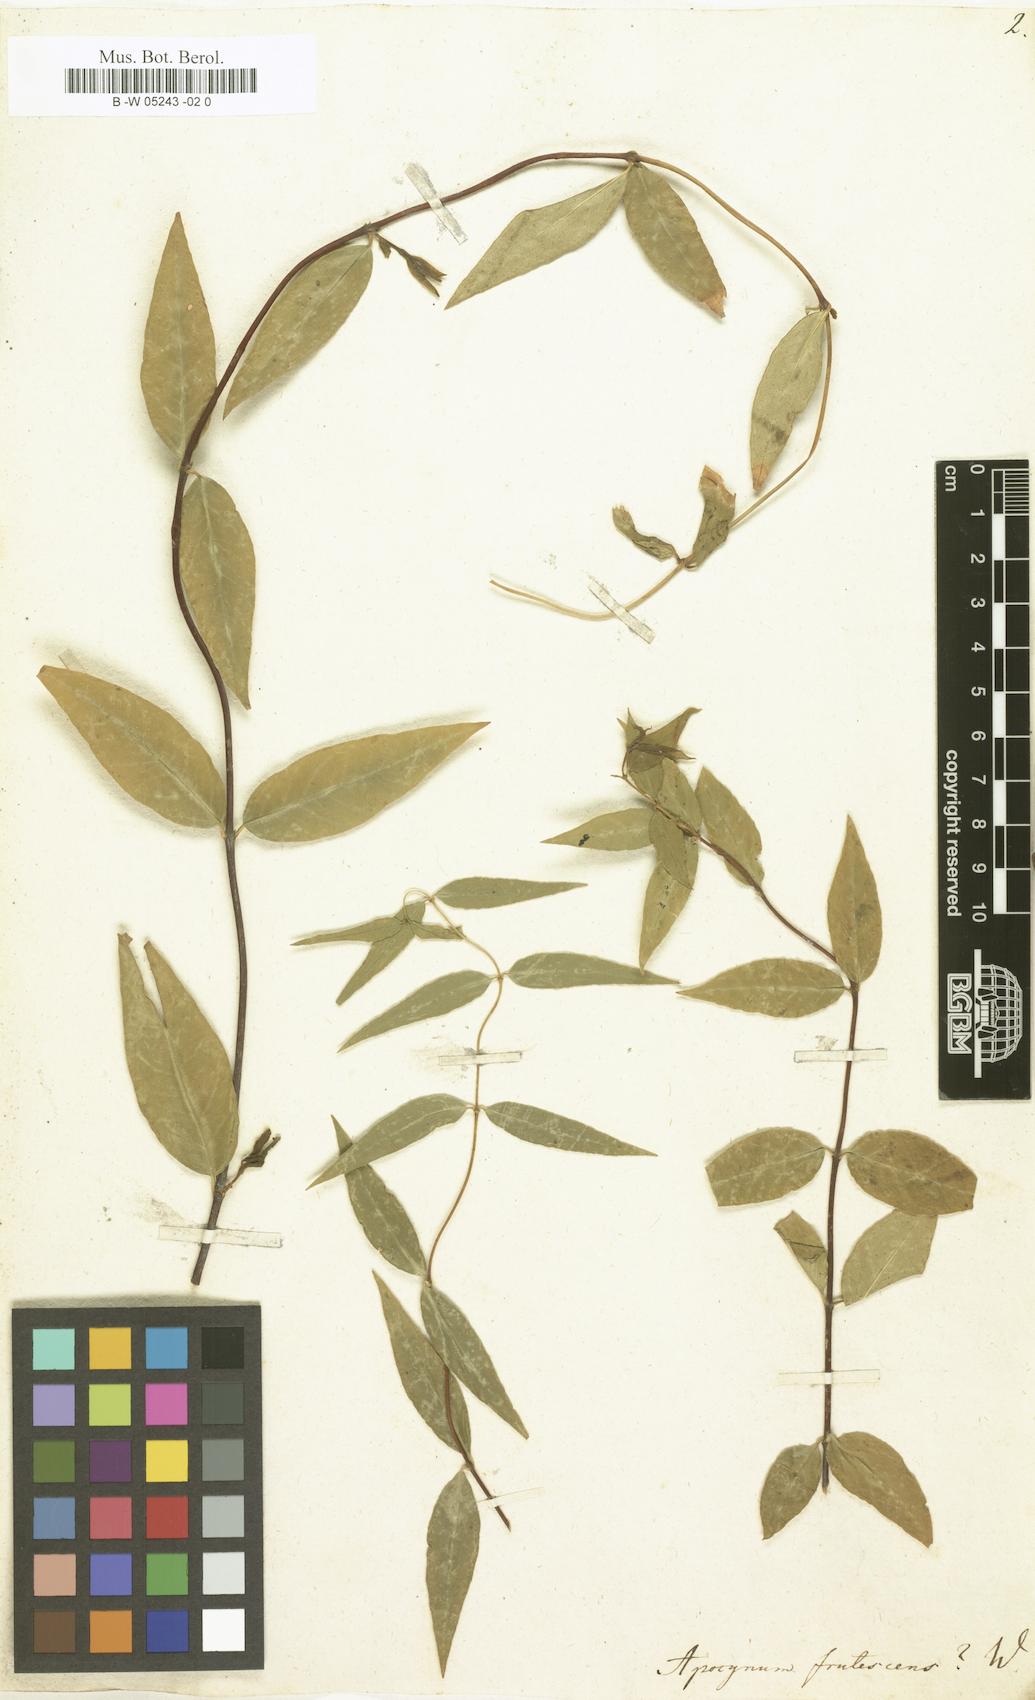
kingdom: Plantae
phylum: Tracheophyta
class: Magnoliopsida
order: Gentianales
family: Apocynaceae
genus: Ichnocarpus
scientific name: Ichnocarpus frutescens
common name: Ichnocarpus
